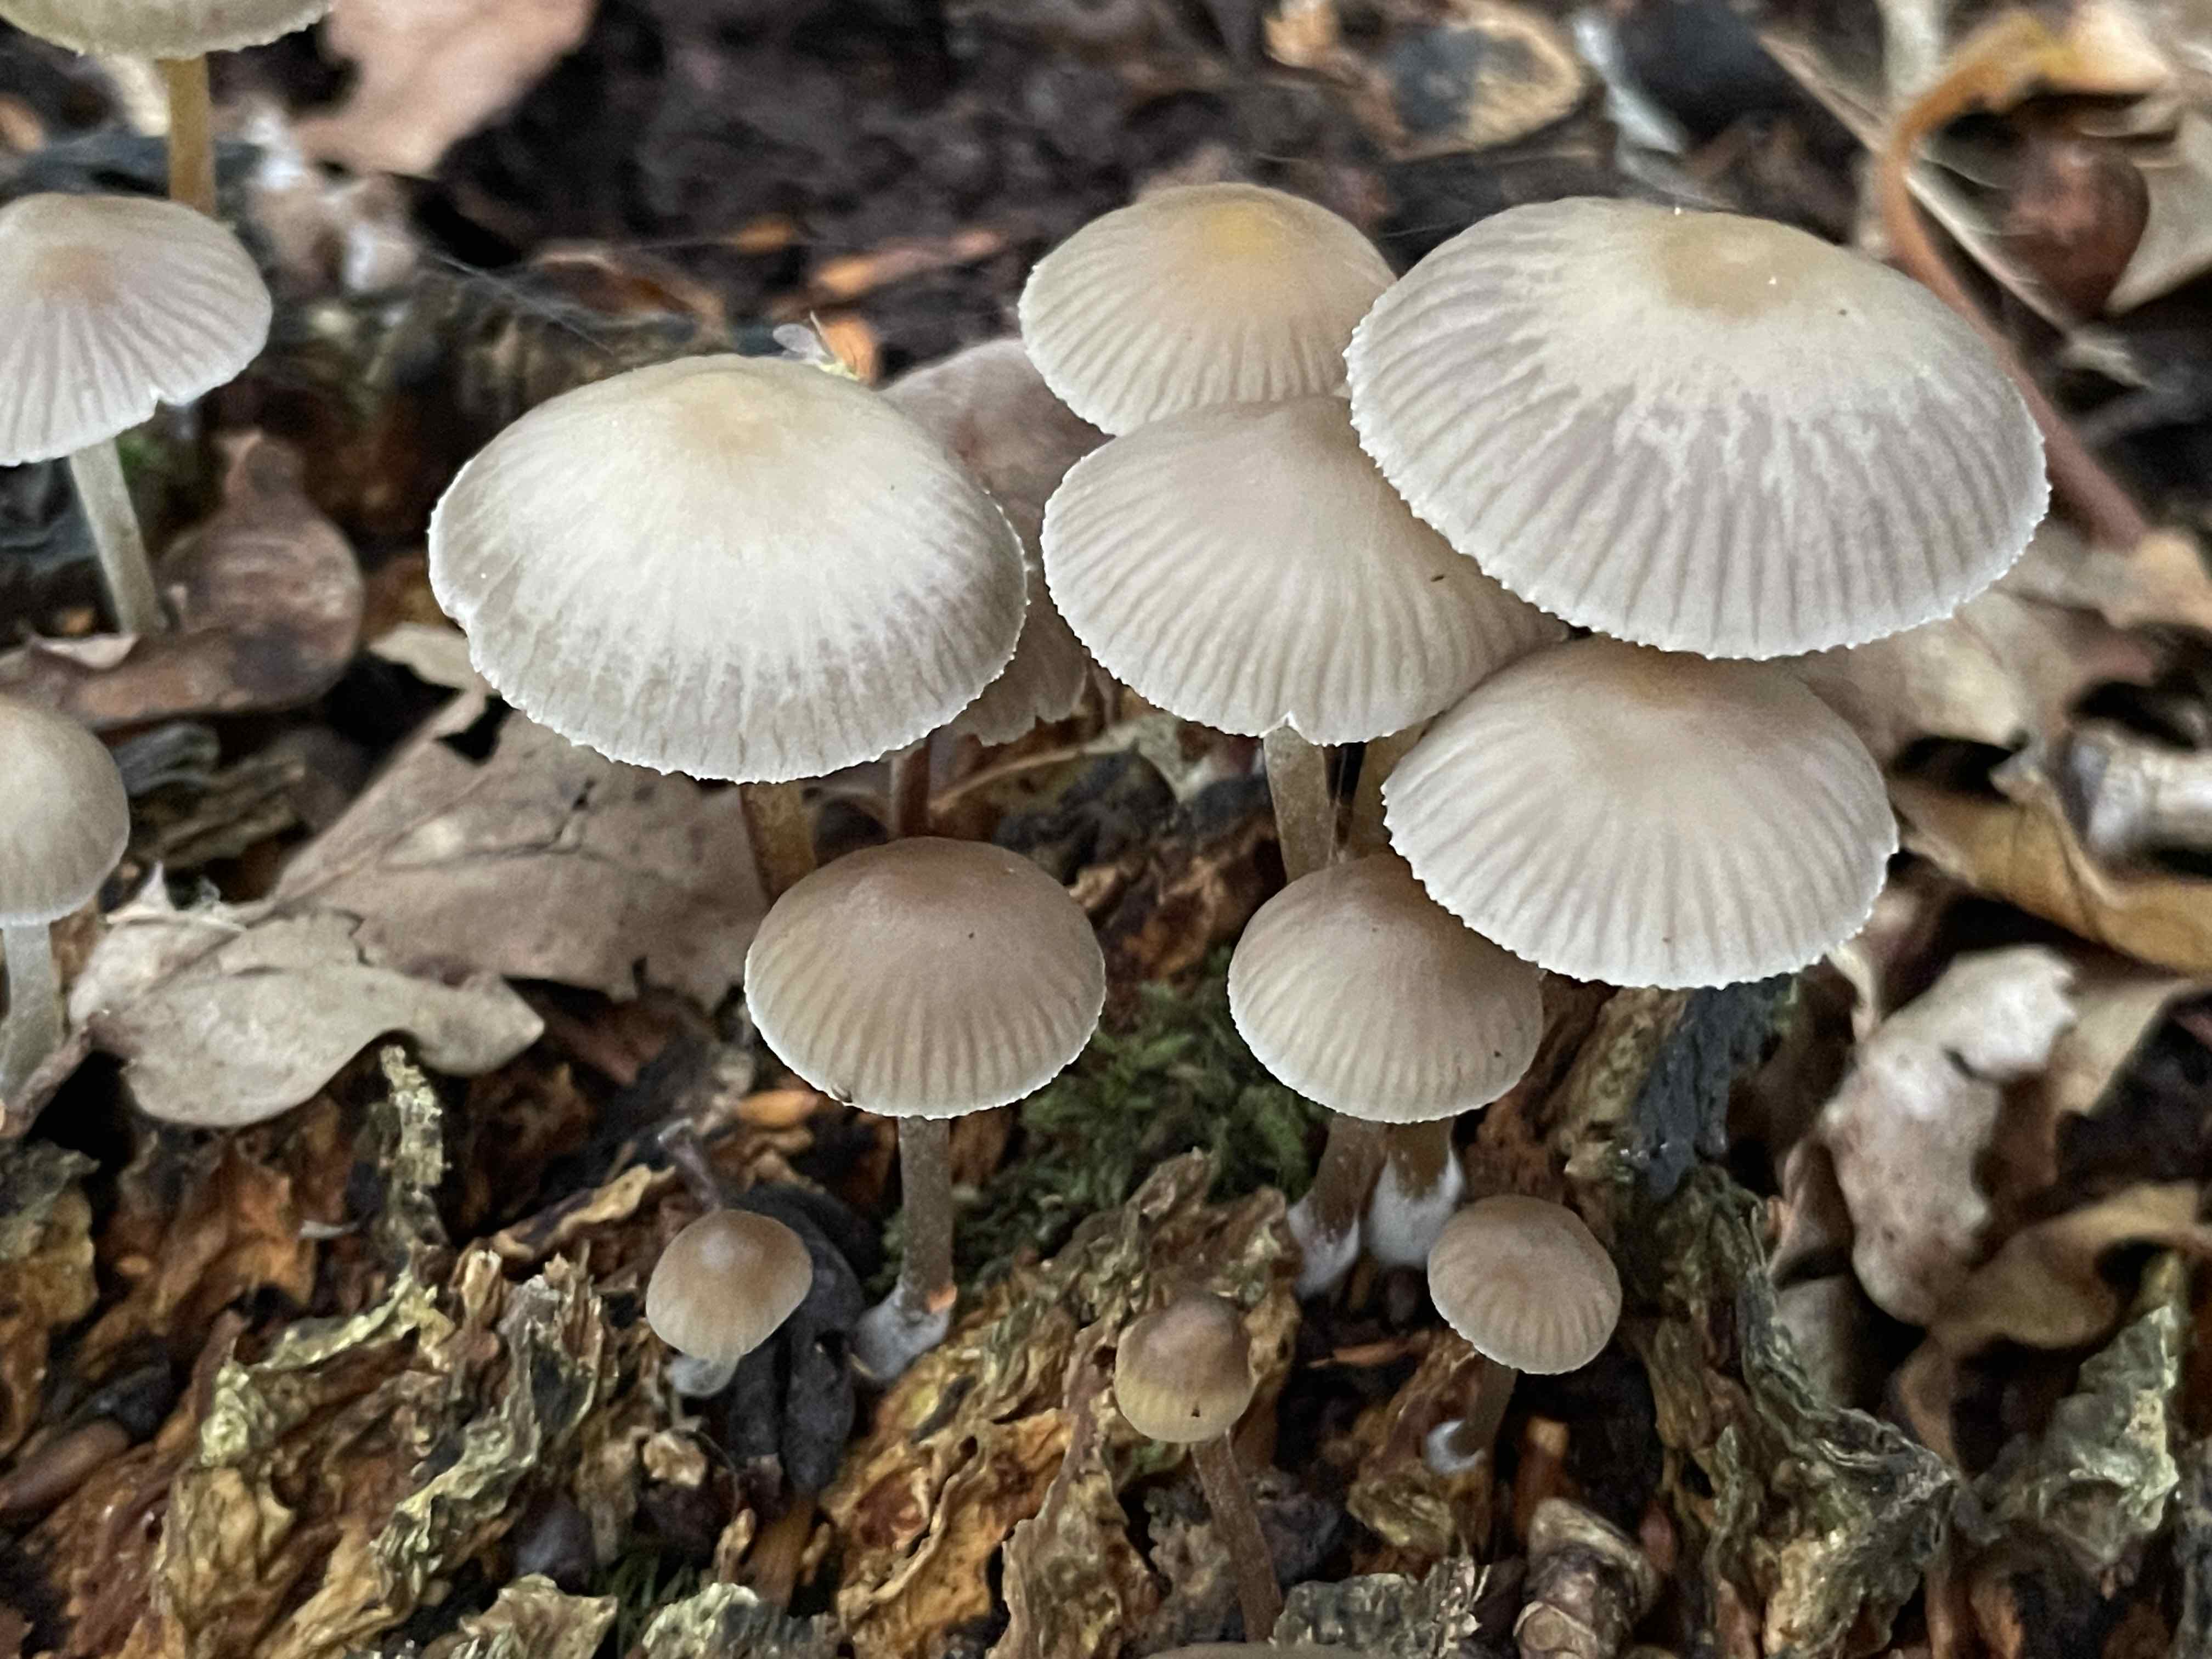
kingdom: Fungi
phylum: Basidiomycota
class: Agaricomycetes
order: Agaricales
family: Mycenaceae
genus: Mycena
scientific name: Mycena inclinata
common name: nikkende huesvamp
